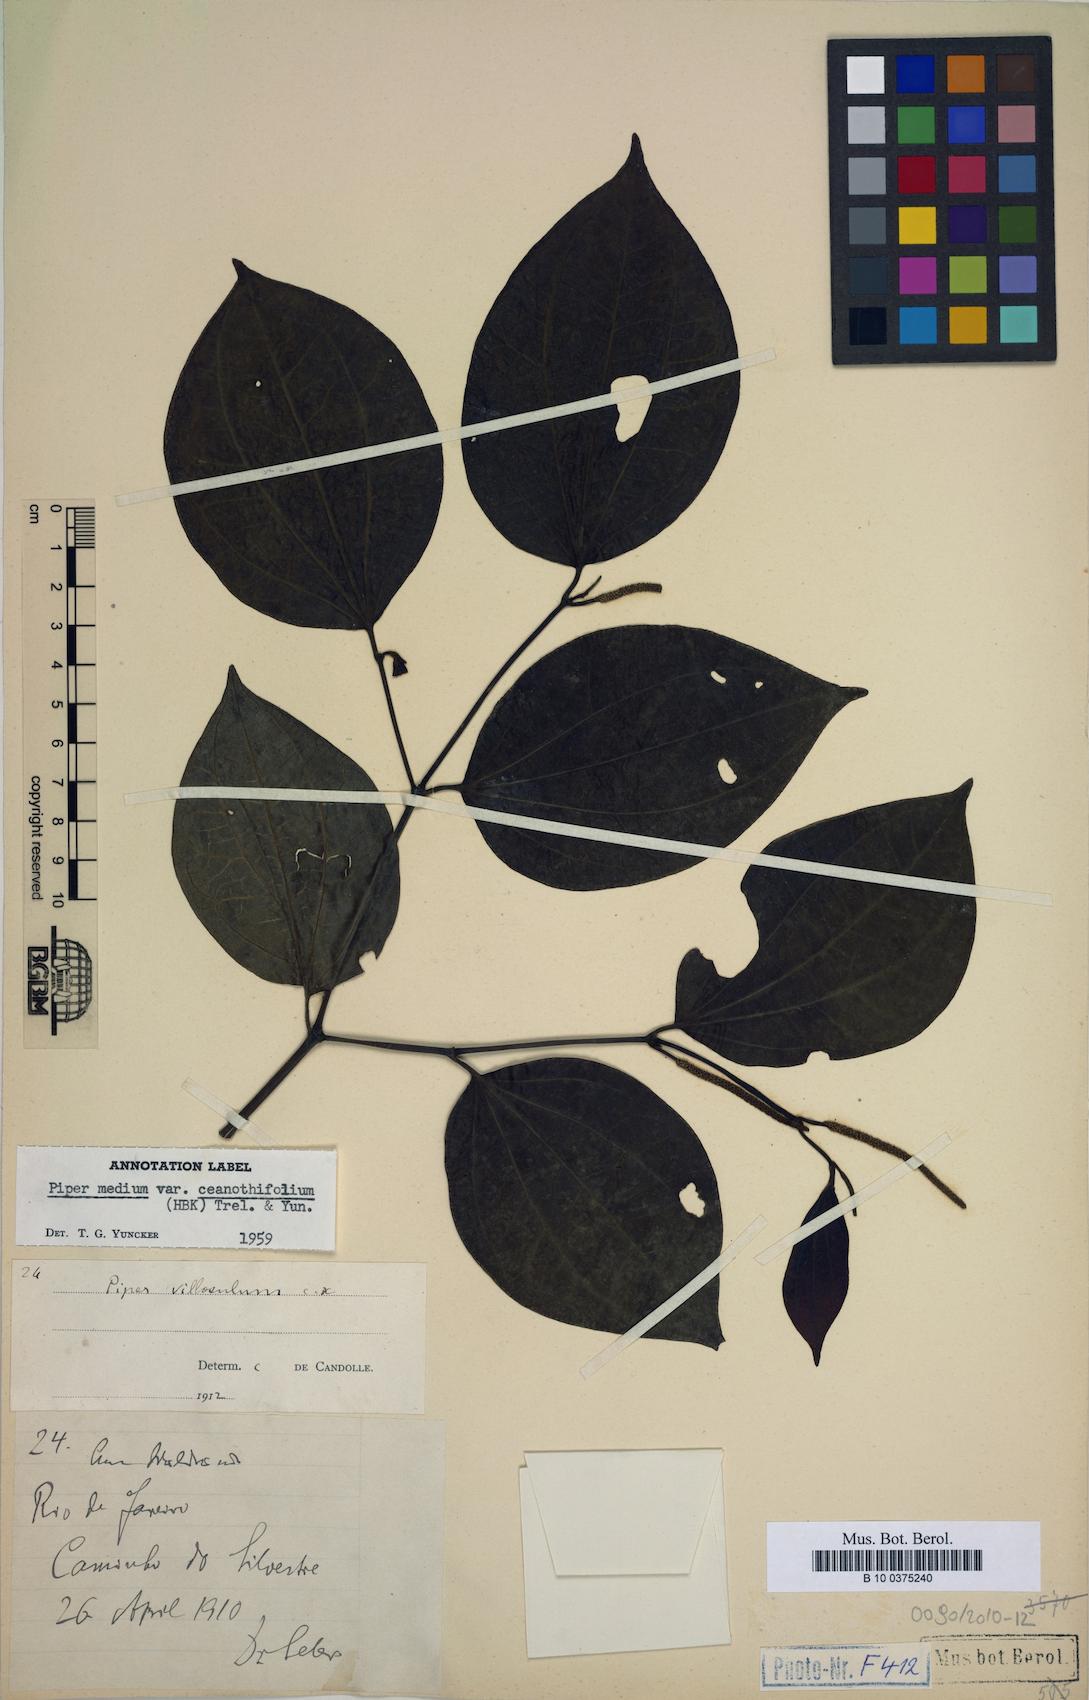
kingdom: Plantae
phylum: Tracheophyta
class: Magnoliopsida
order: Piperales
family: Piperaceae
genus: Piper
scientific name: Piper ceanothifolium
